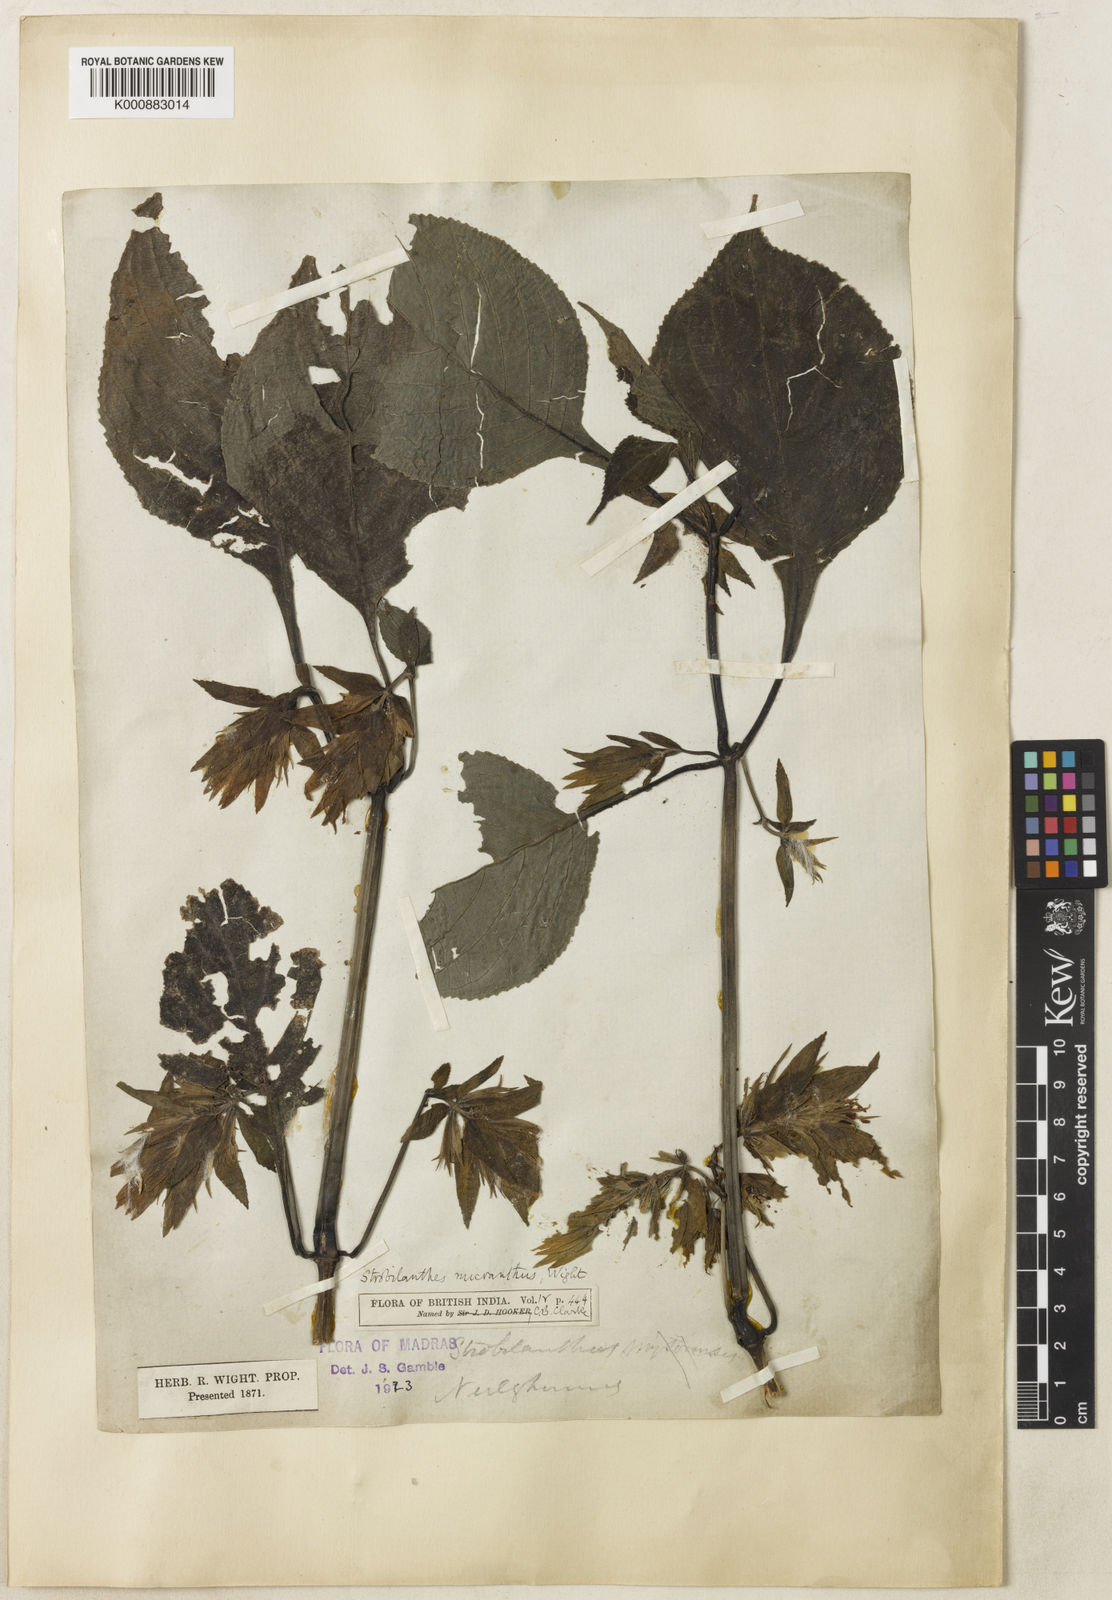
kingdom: Plantae
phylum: Tracheophyta
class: Magnoliopsida
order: Lamiales
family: Acanthaceae
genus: Strobilanthes
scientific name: Strobilanthes micrantha
